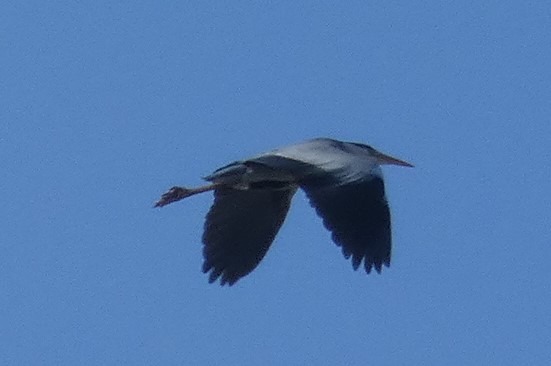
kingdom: Animalia
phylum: Chordata
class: Aves
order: Pelecaniformes
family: Ardeidae
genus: Ardea
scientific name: Ardea cinerea
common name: Fiskehejre
